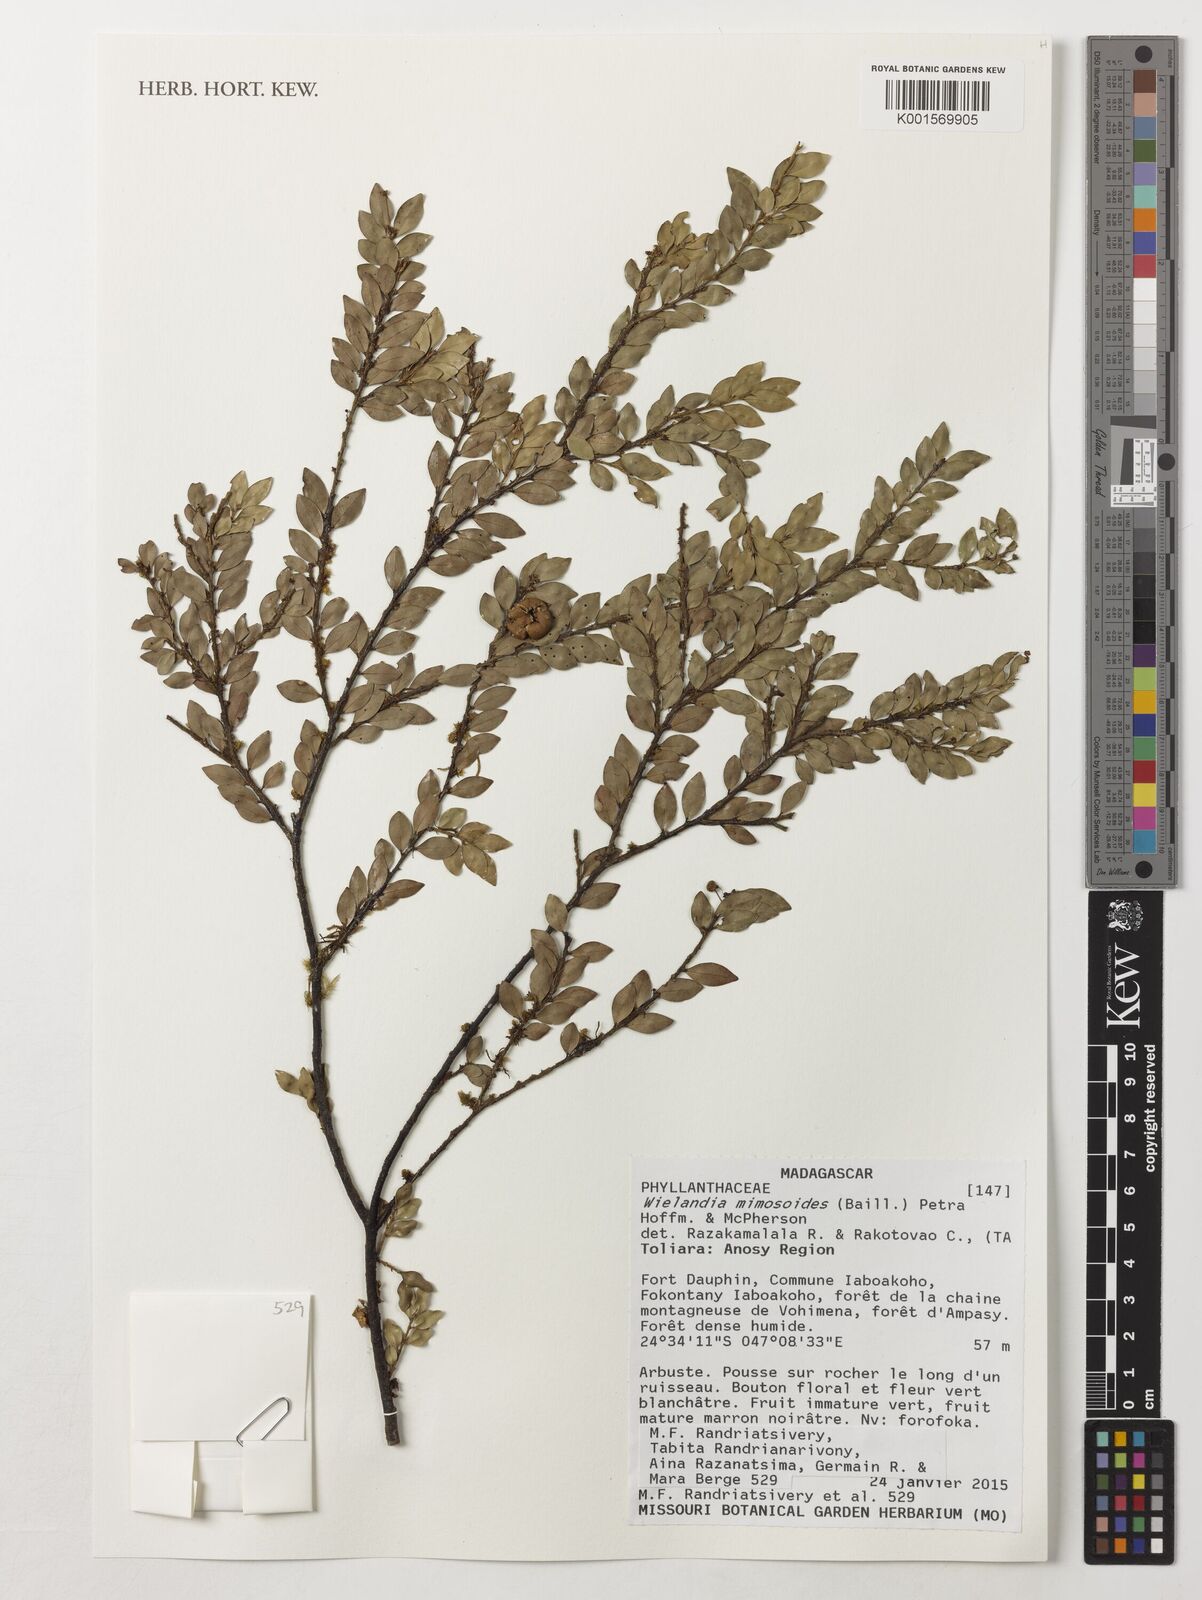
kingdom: Plantae
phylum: Tracheophyta
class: Magnoliopsida
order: Malpighiales
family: Phyllanthaceae
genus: Wielandia
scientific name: Wielandia mimosoides
